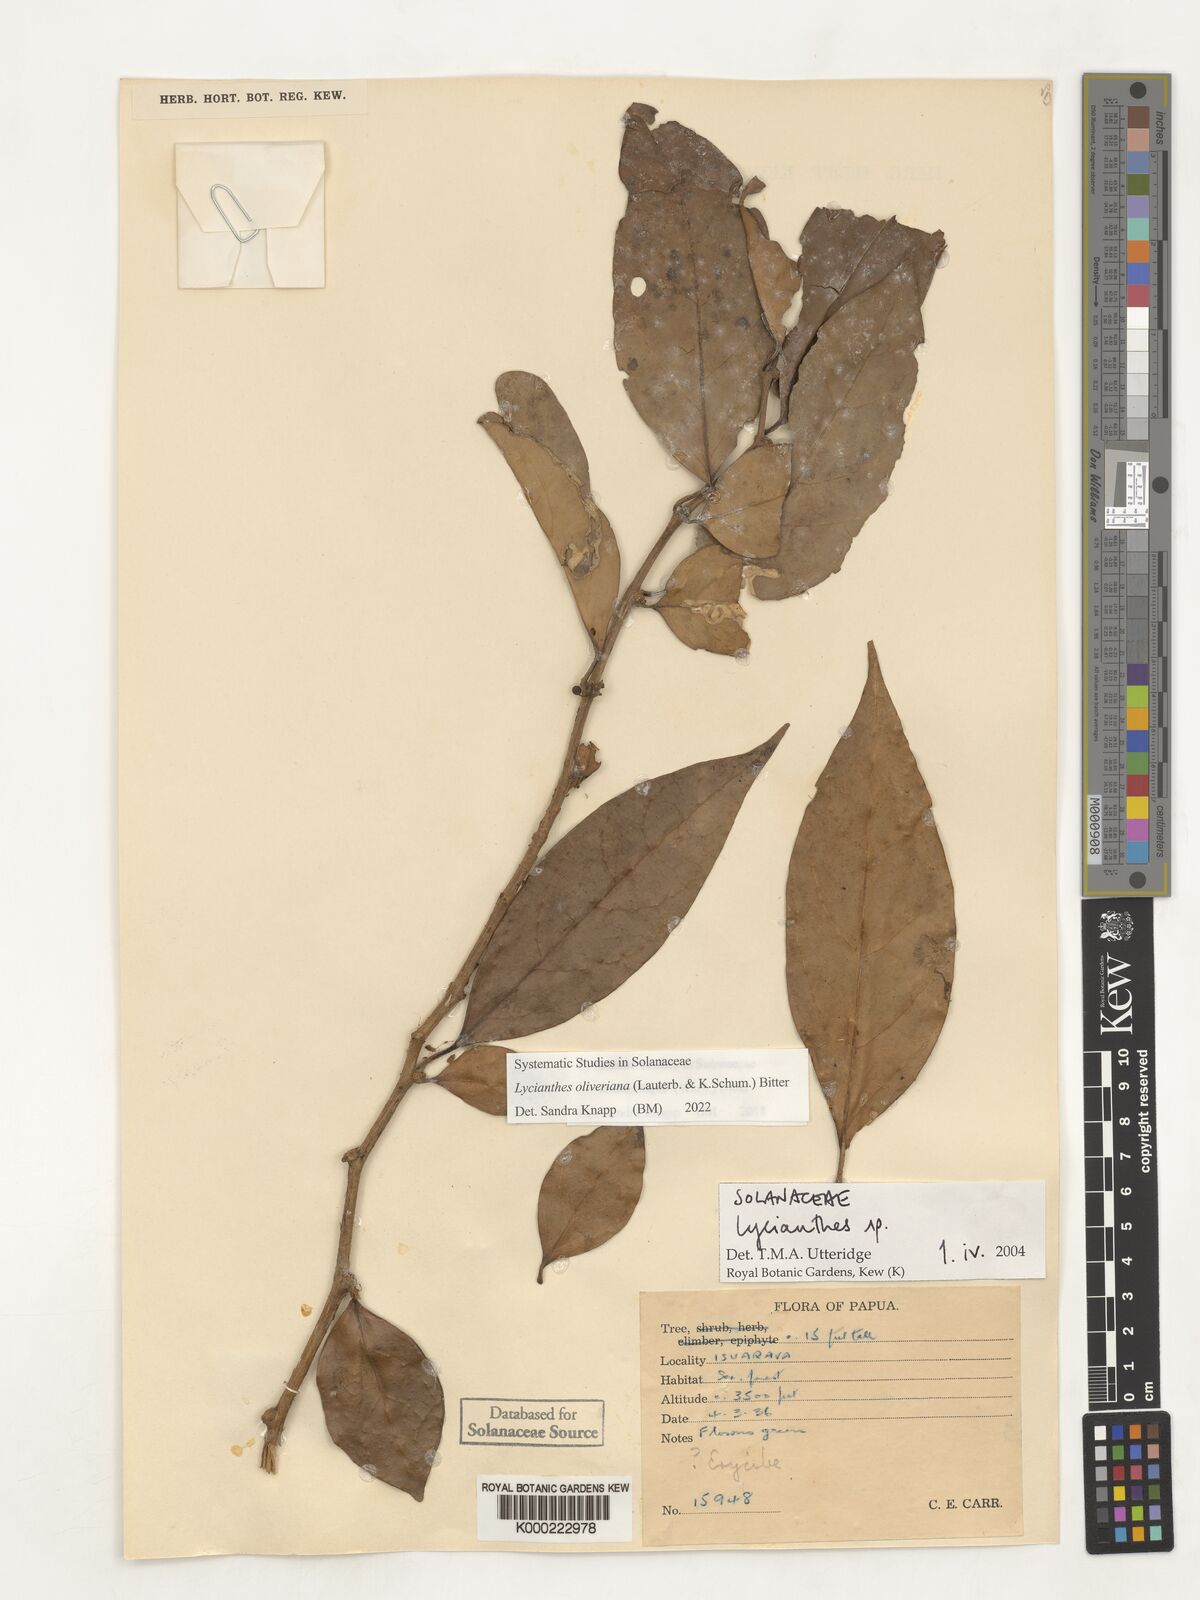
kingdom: Plantae
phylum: Tracheophyta
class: Magnoliopsida
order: Solanales
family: Solanaceae
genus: Lycianthes
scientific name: Lycianthes
